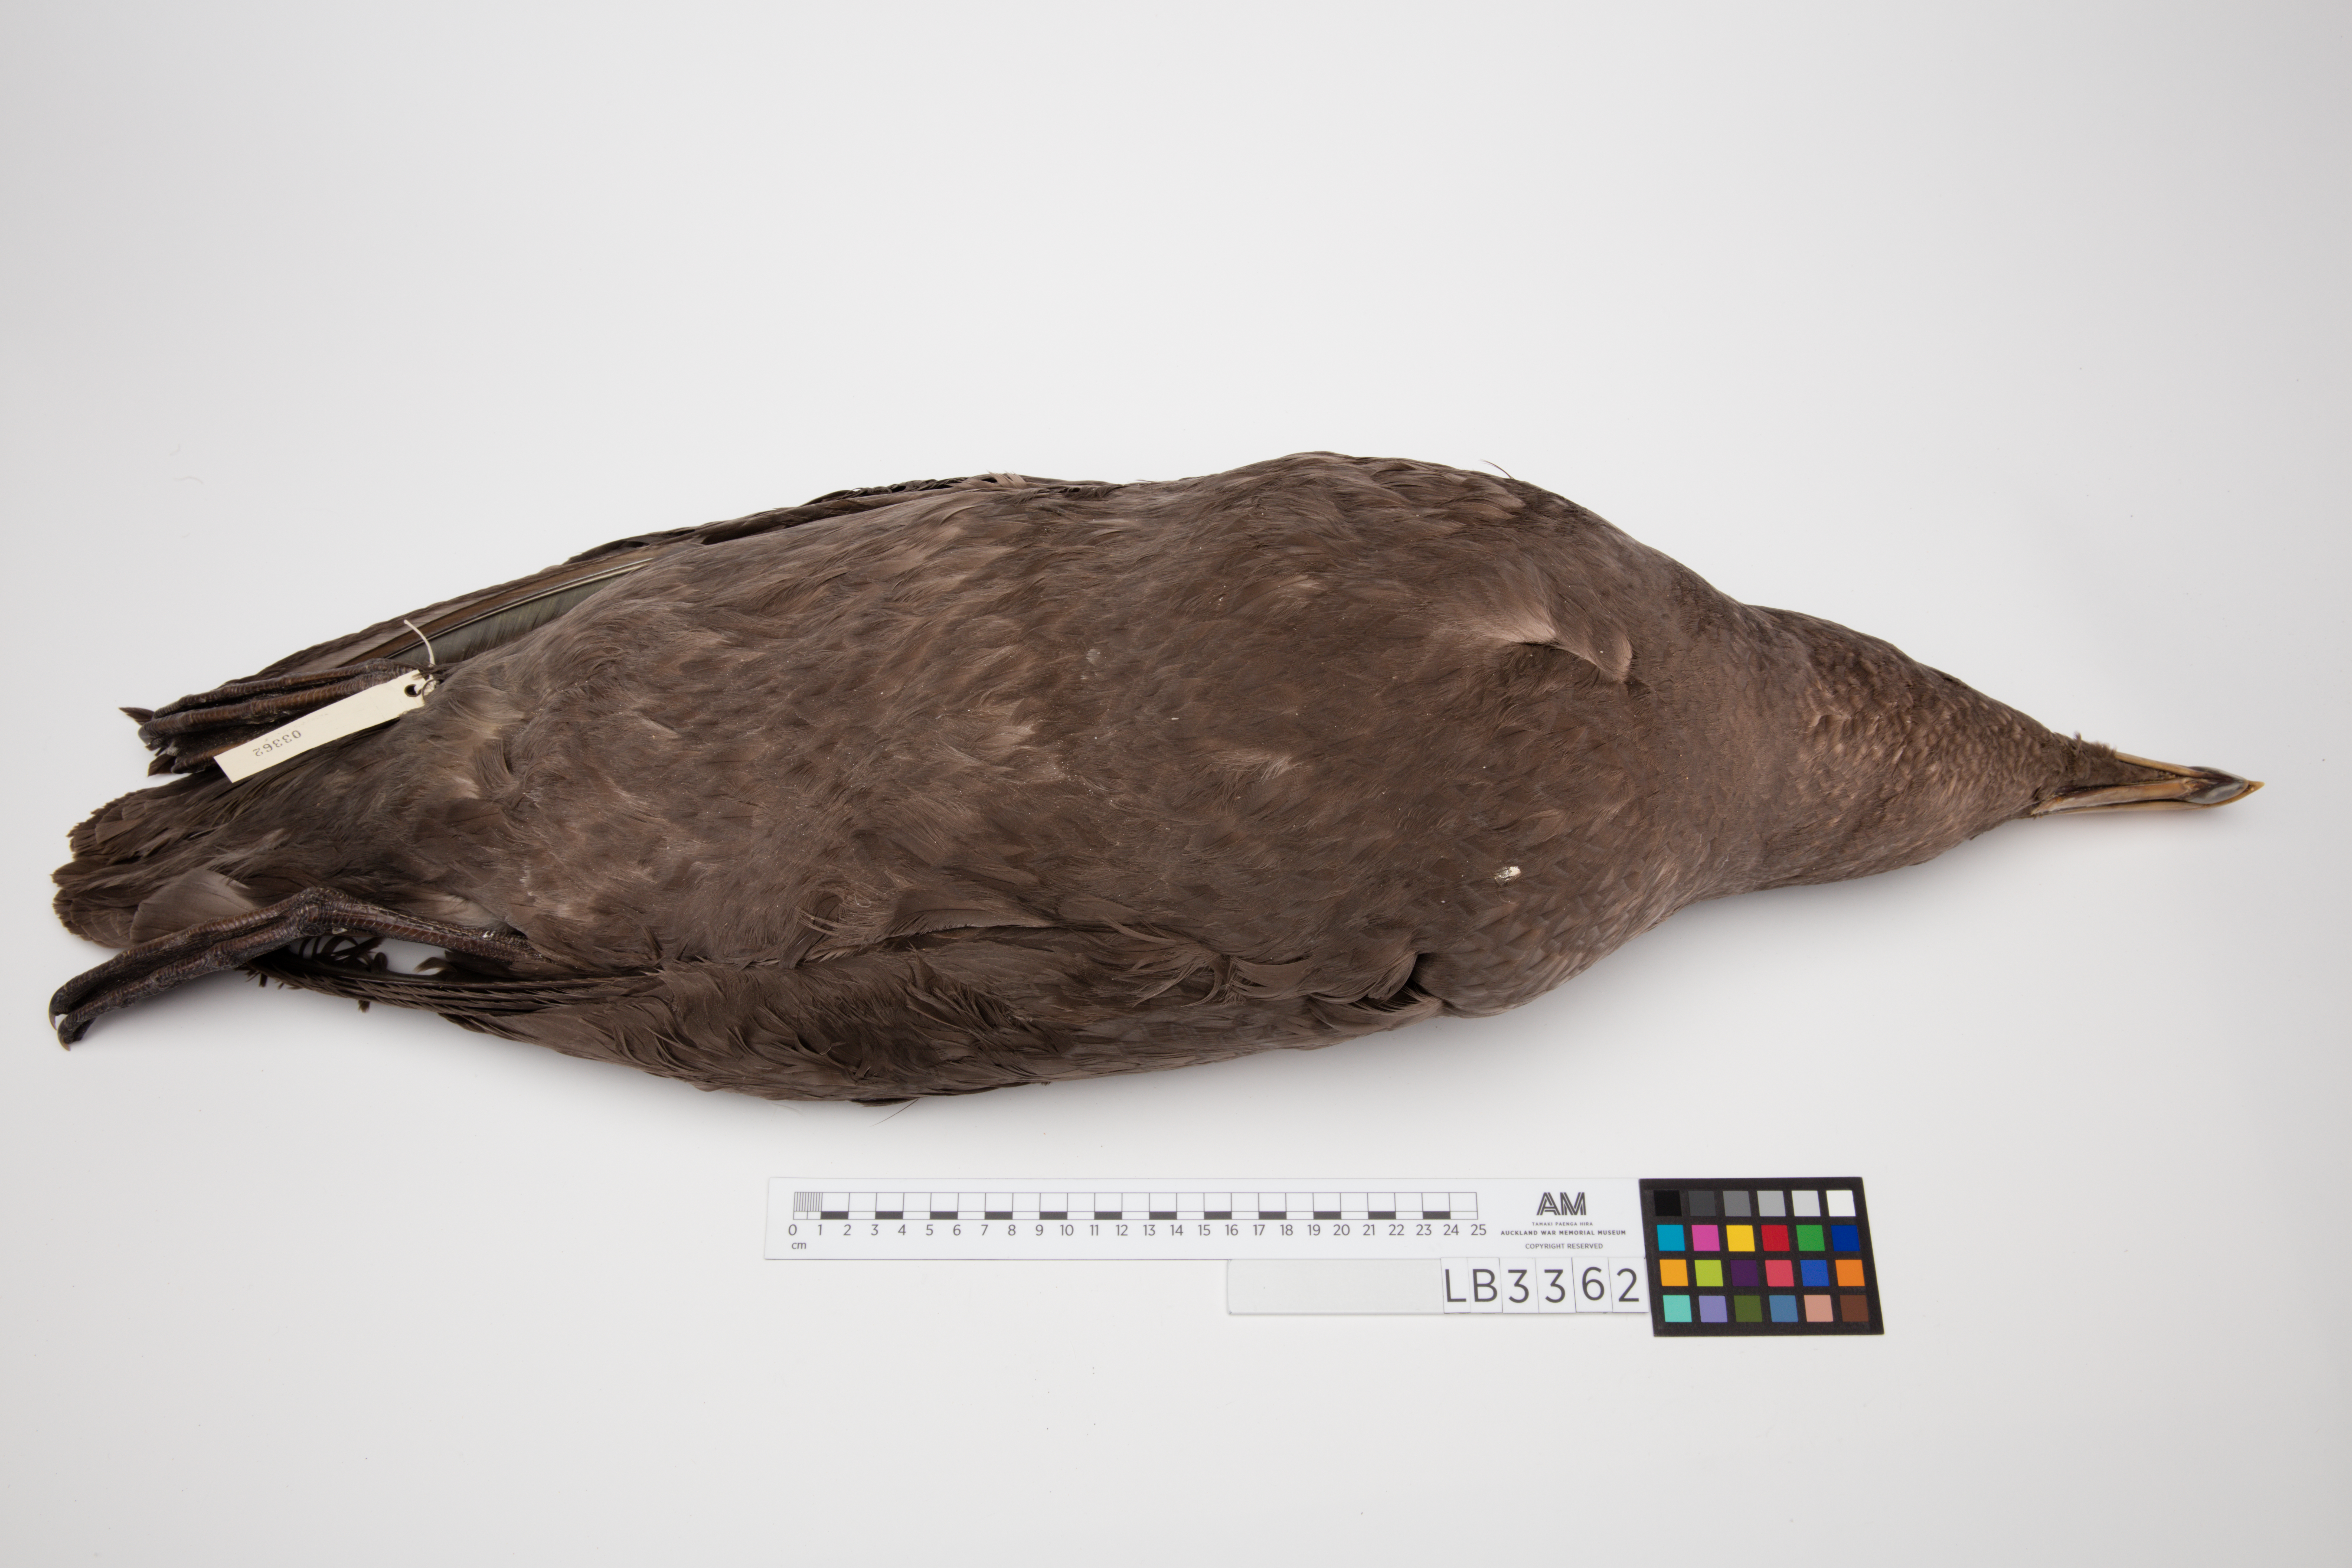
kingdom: Animalia
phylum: Chordata
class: Aves
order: Procellariiformes
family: Procellariidae
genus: Macronectes
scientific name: Macronectes giganteus
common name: Southern giant petrel
